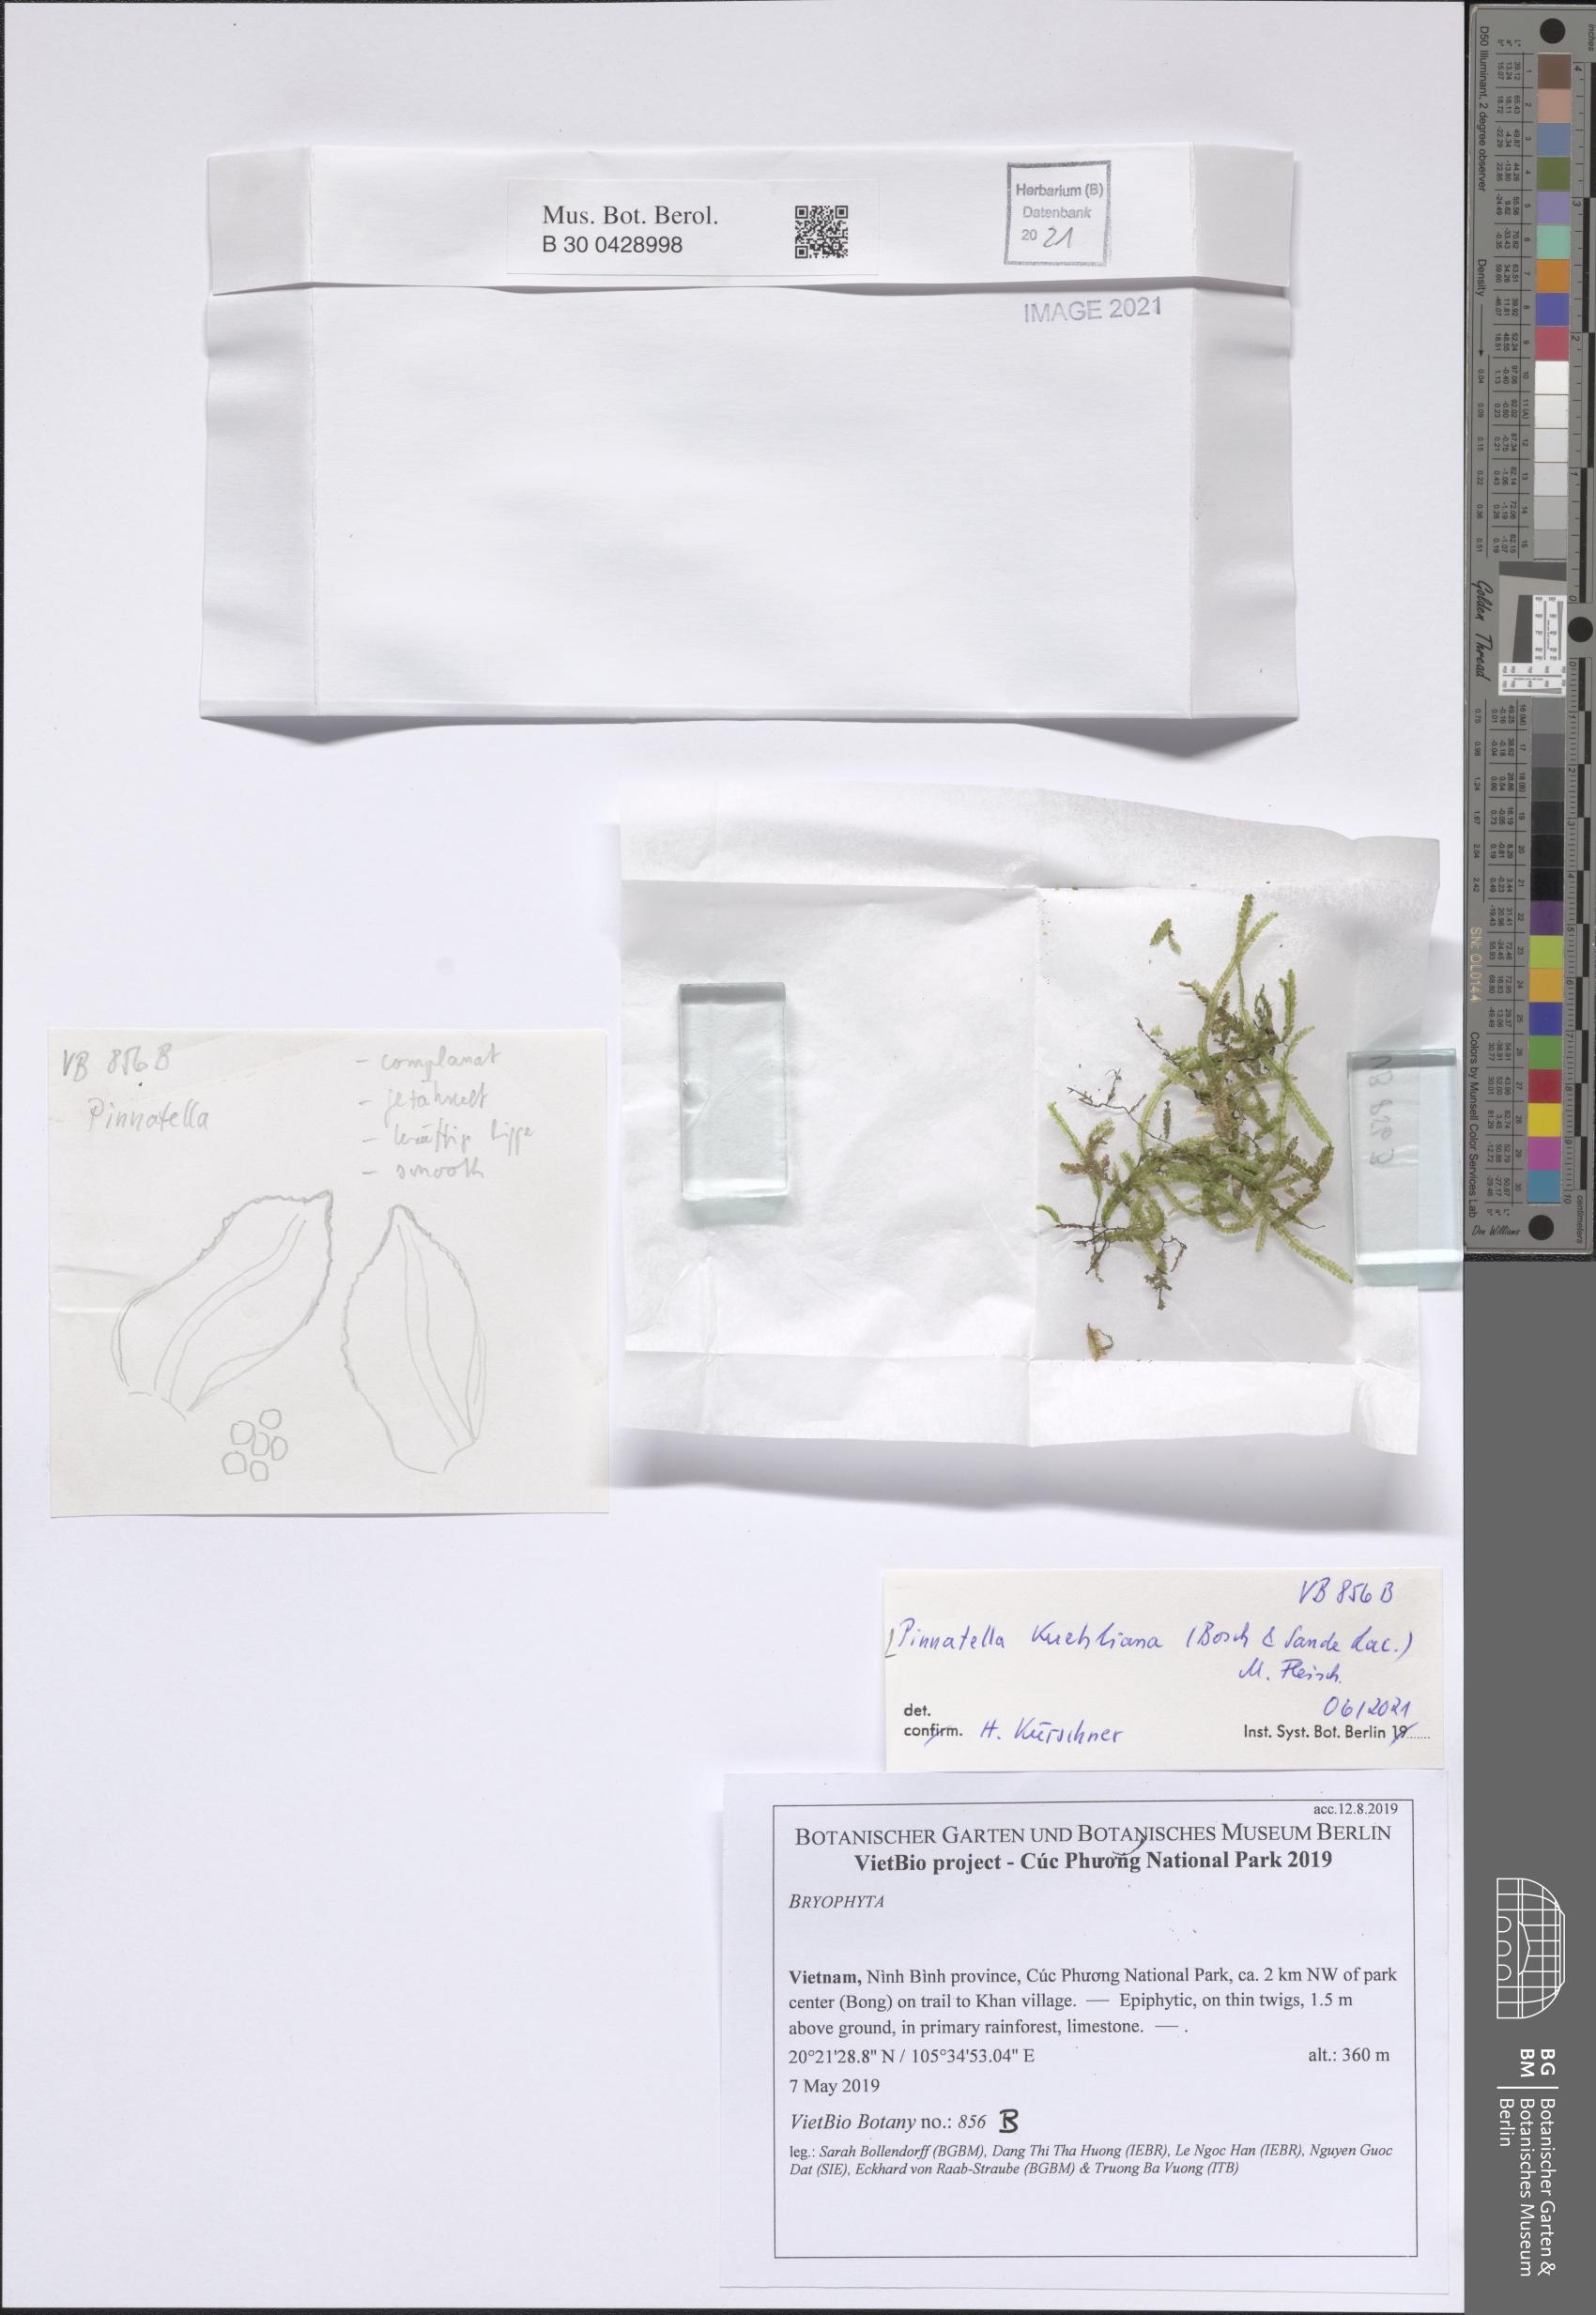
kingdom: Plantae
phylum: Bryophyta
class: Bryopsida
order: Hypnales
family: Neckeraceae
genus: Pinnatella
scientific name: Pinnatella kuehliana
